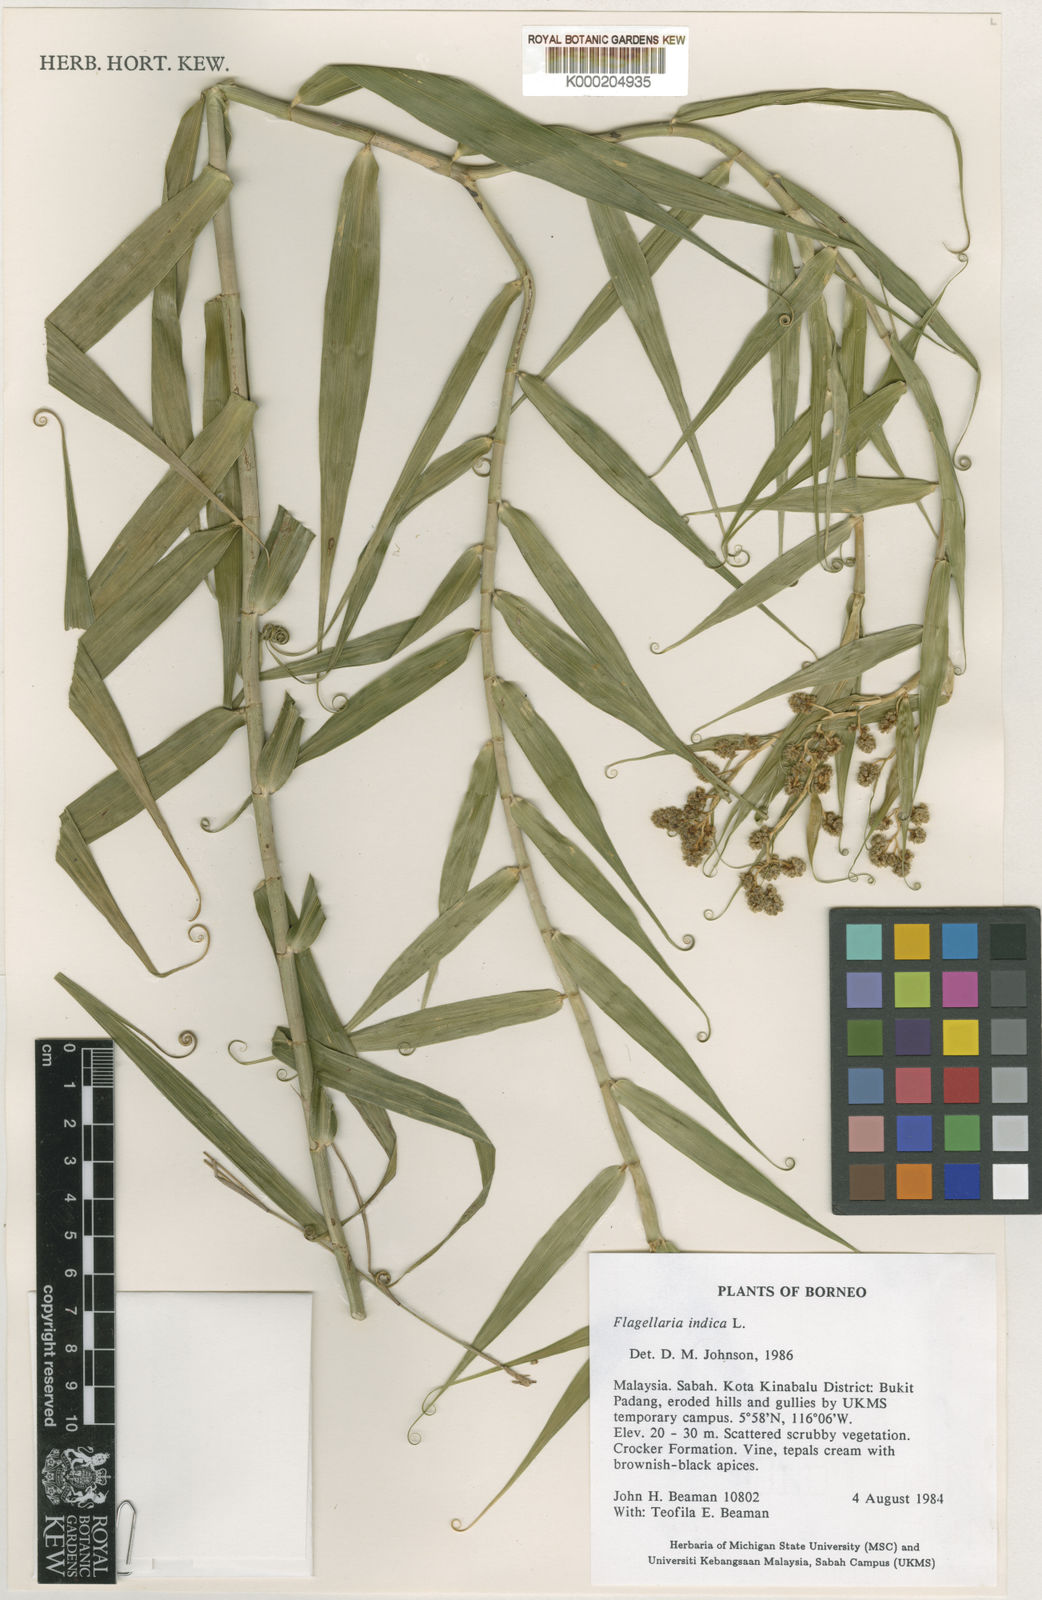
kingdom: Plantae
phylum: Tracheophyta
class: Liliopsida
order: Poales
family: Flagellariaceae
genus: Flagellaria
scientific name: Flagellaria indica
